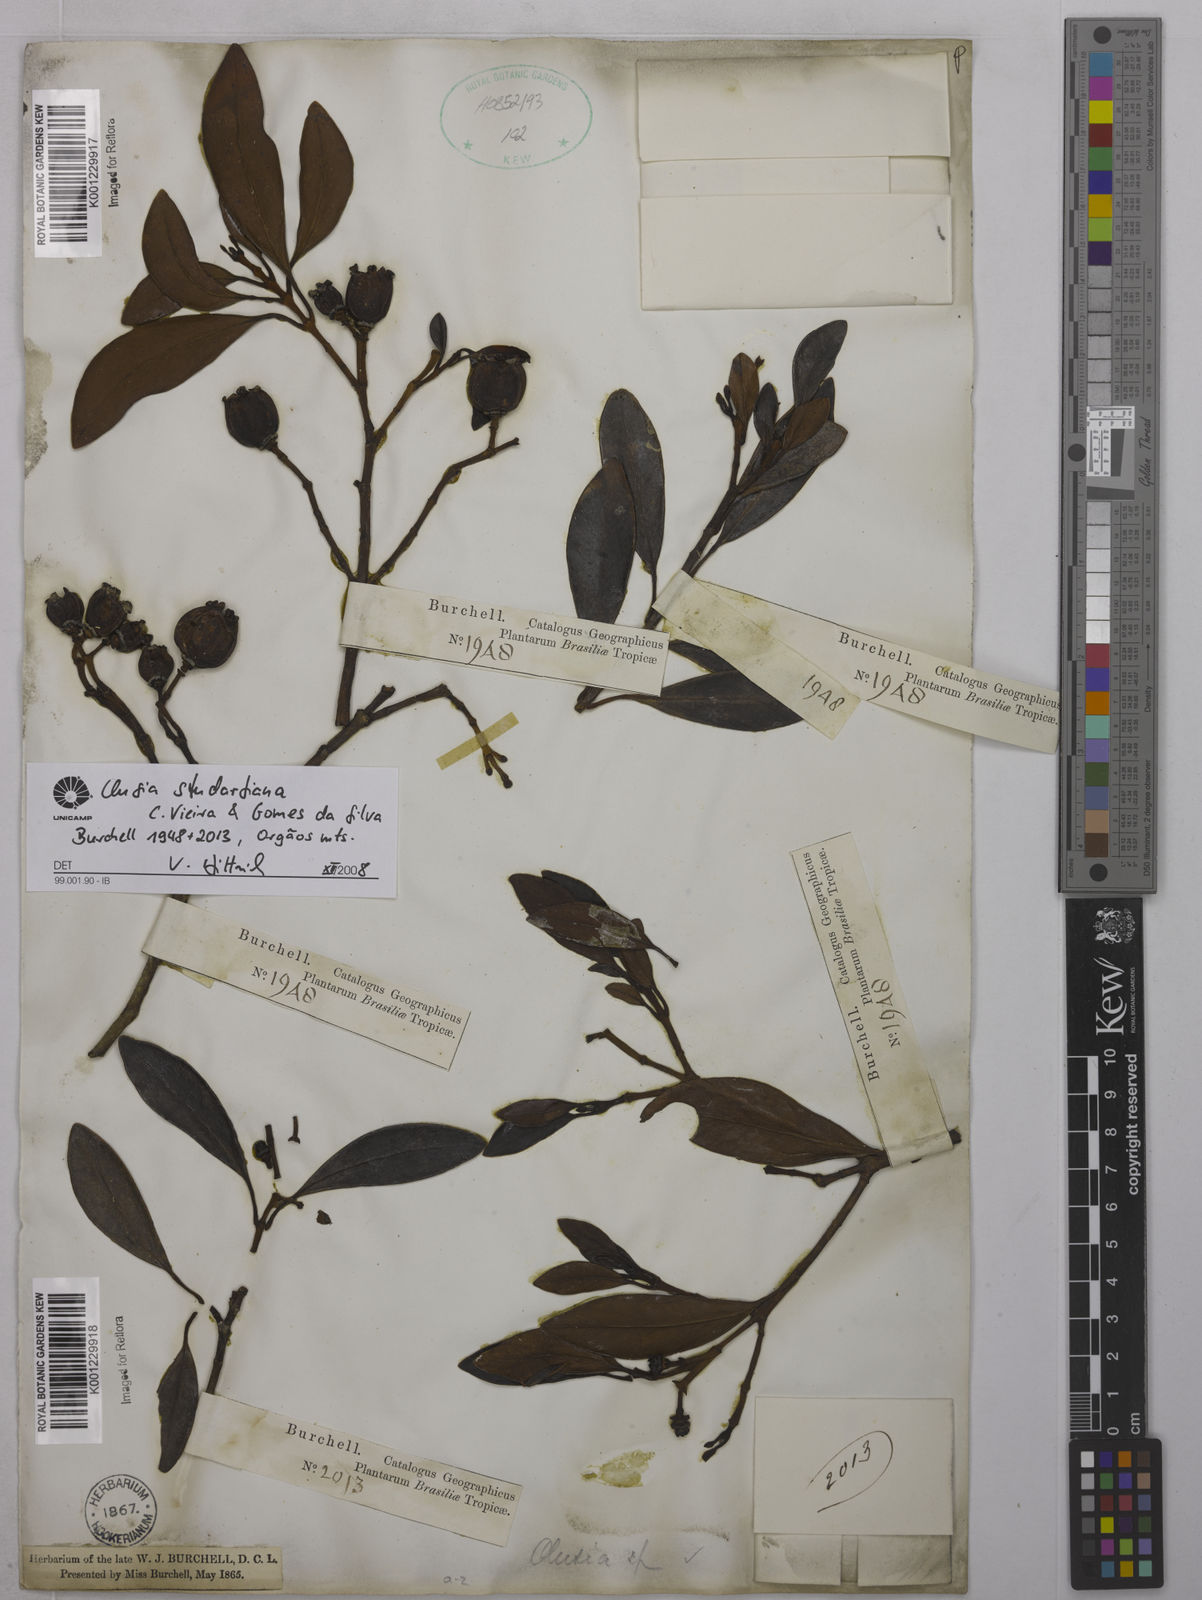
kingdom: Plantae
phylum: Tracheophyta
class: Magnoliopsida
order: Malpighiales
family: Clusiaceae
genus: Clusia
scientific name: Clusia studartiana
